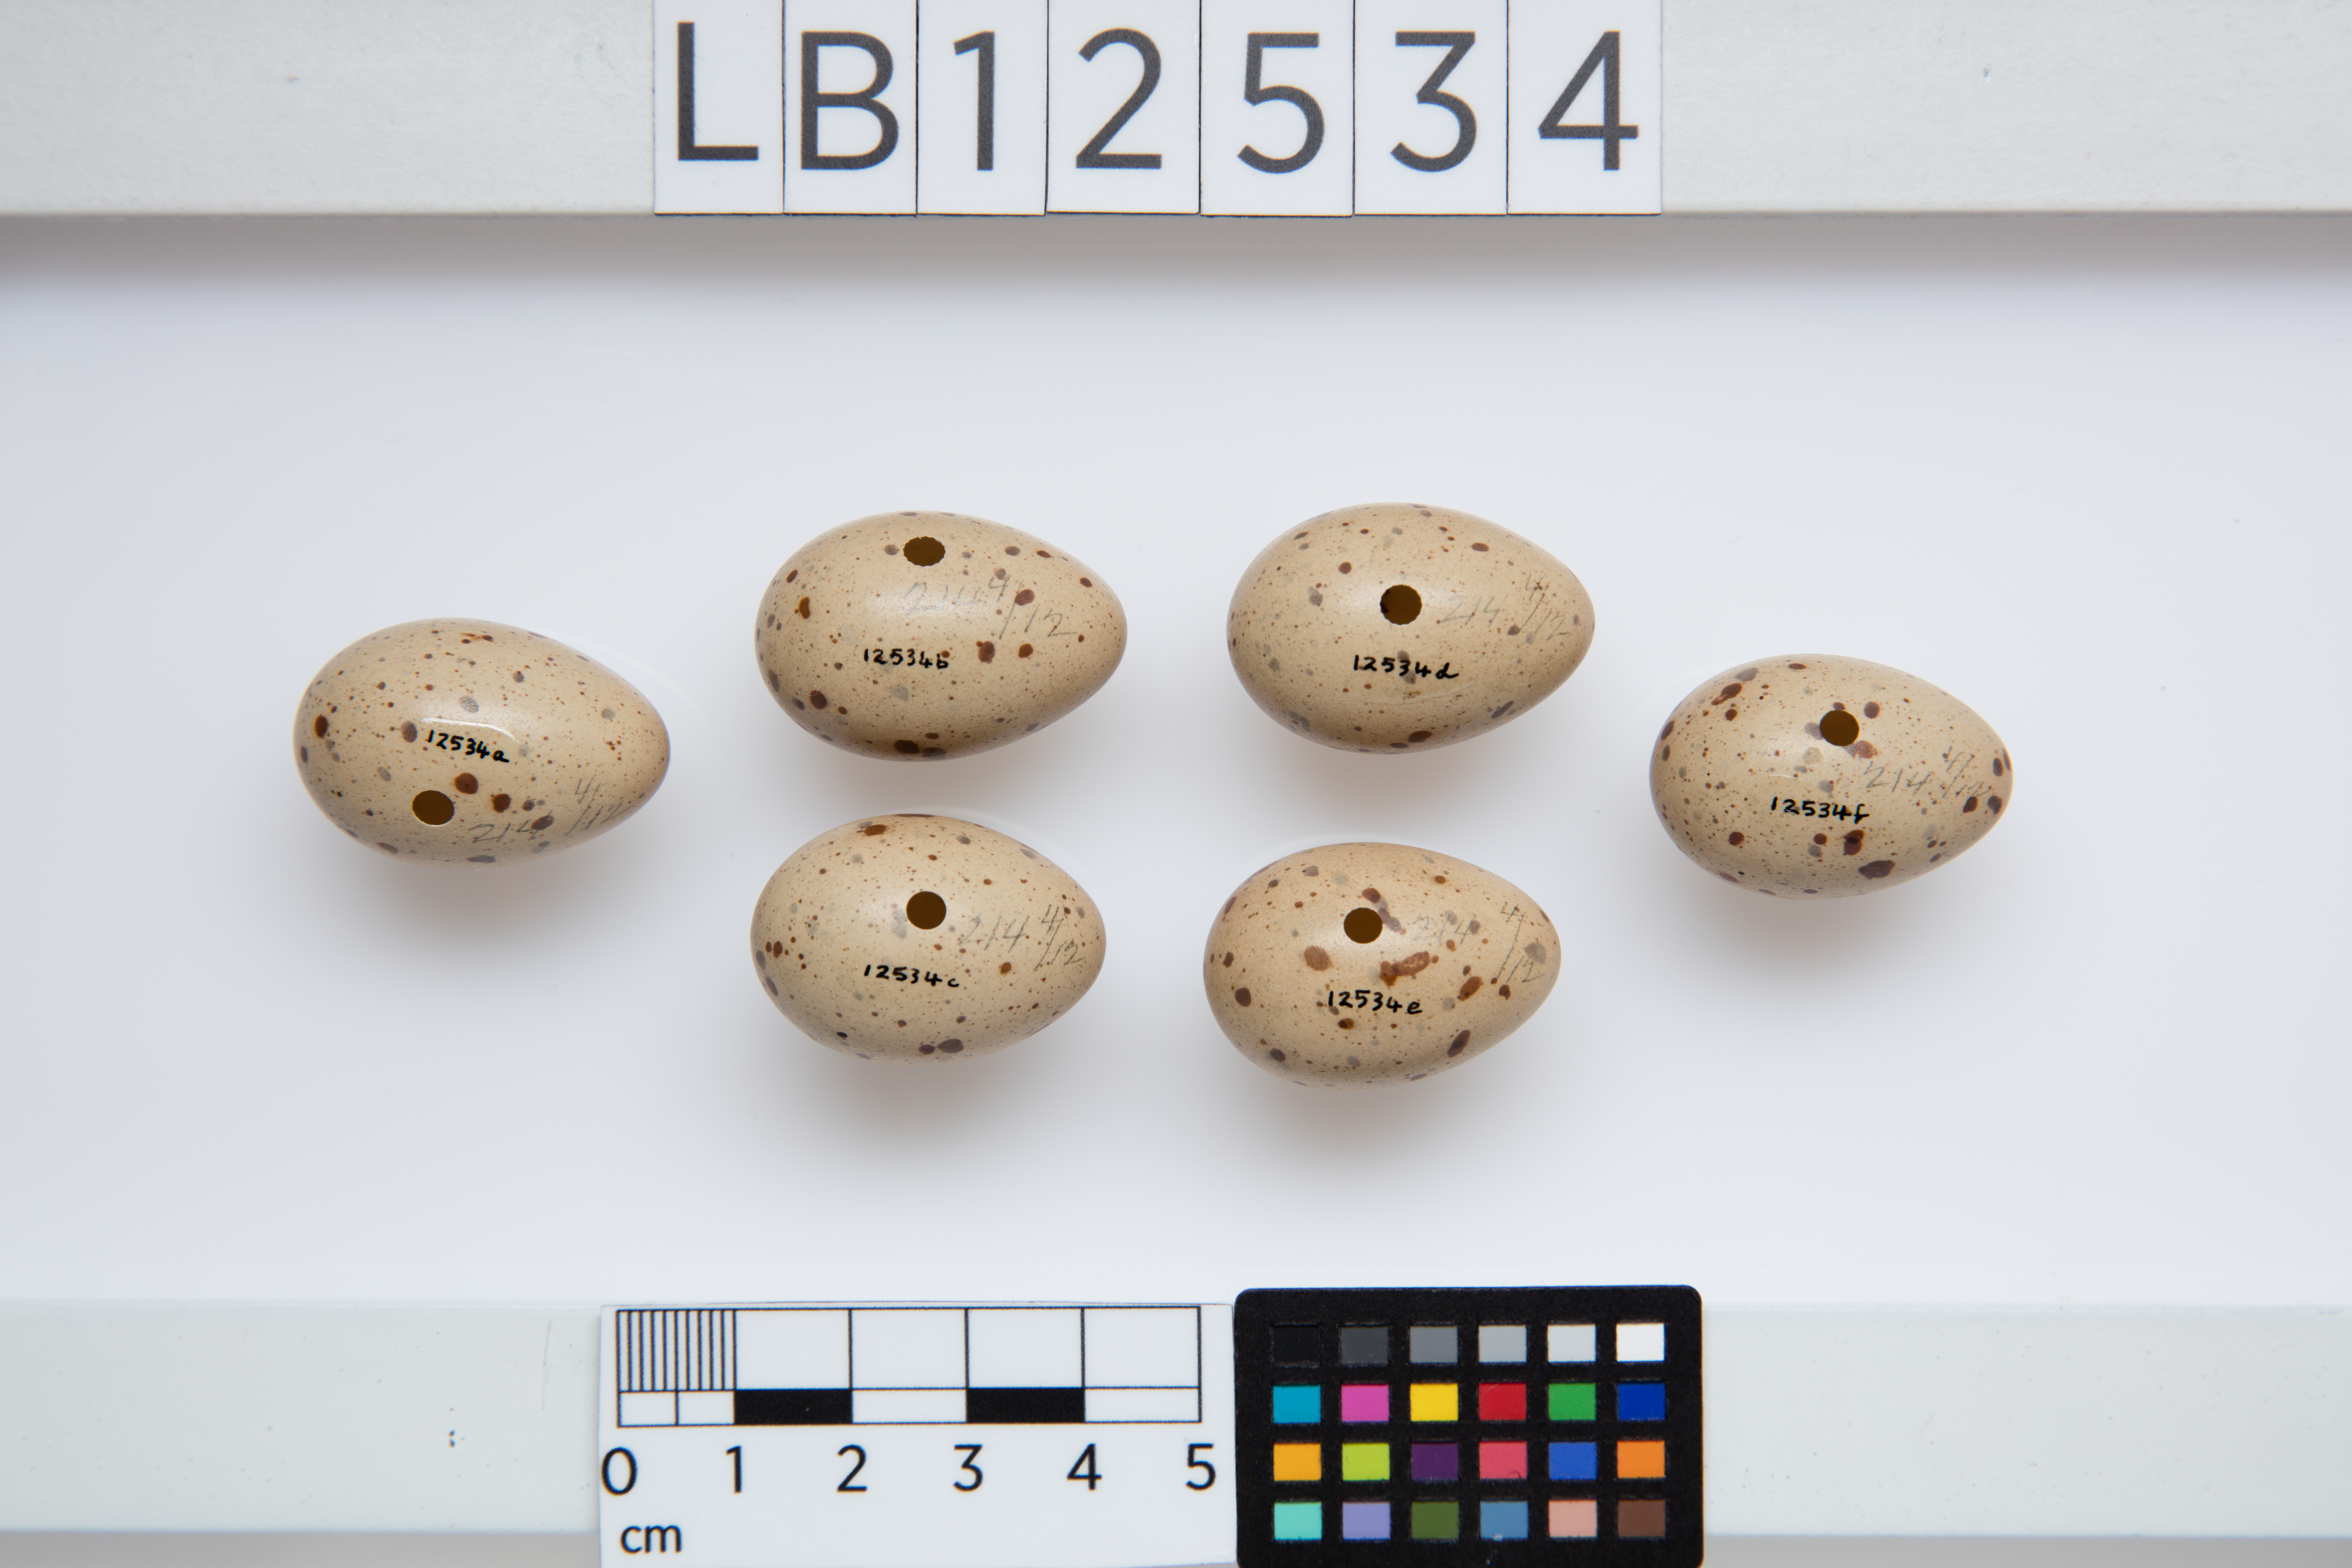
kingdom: Animalia
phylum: Chordata
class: Aves
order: Gruiformes
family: Rallidae
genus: Rallus
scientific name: Rallus
